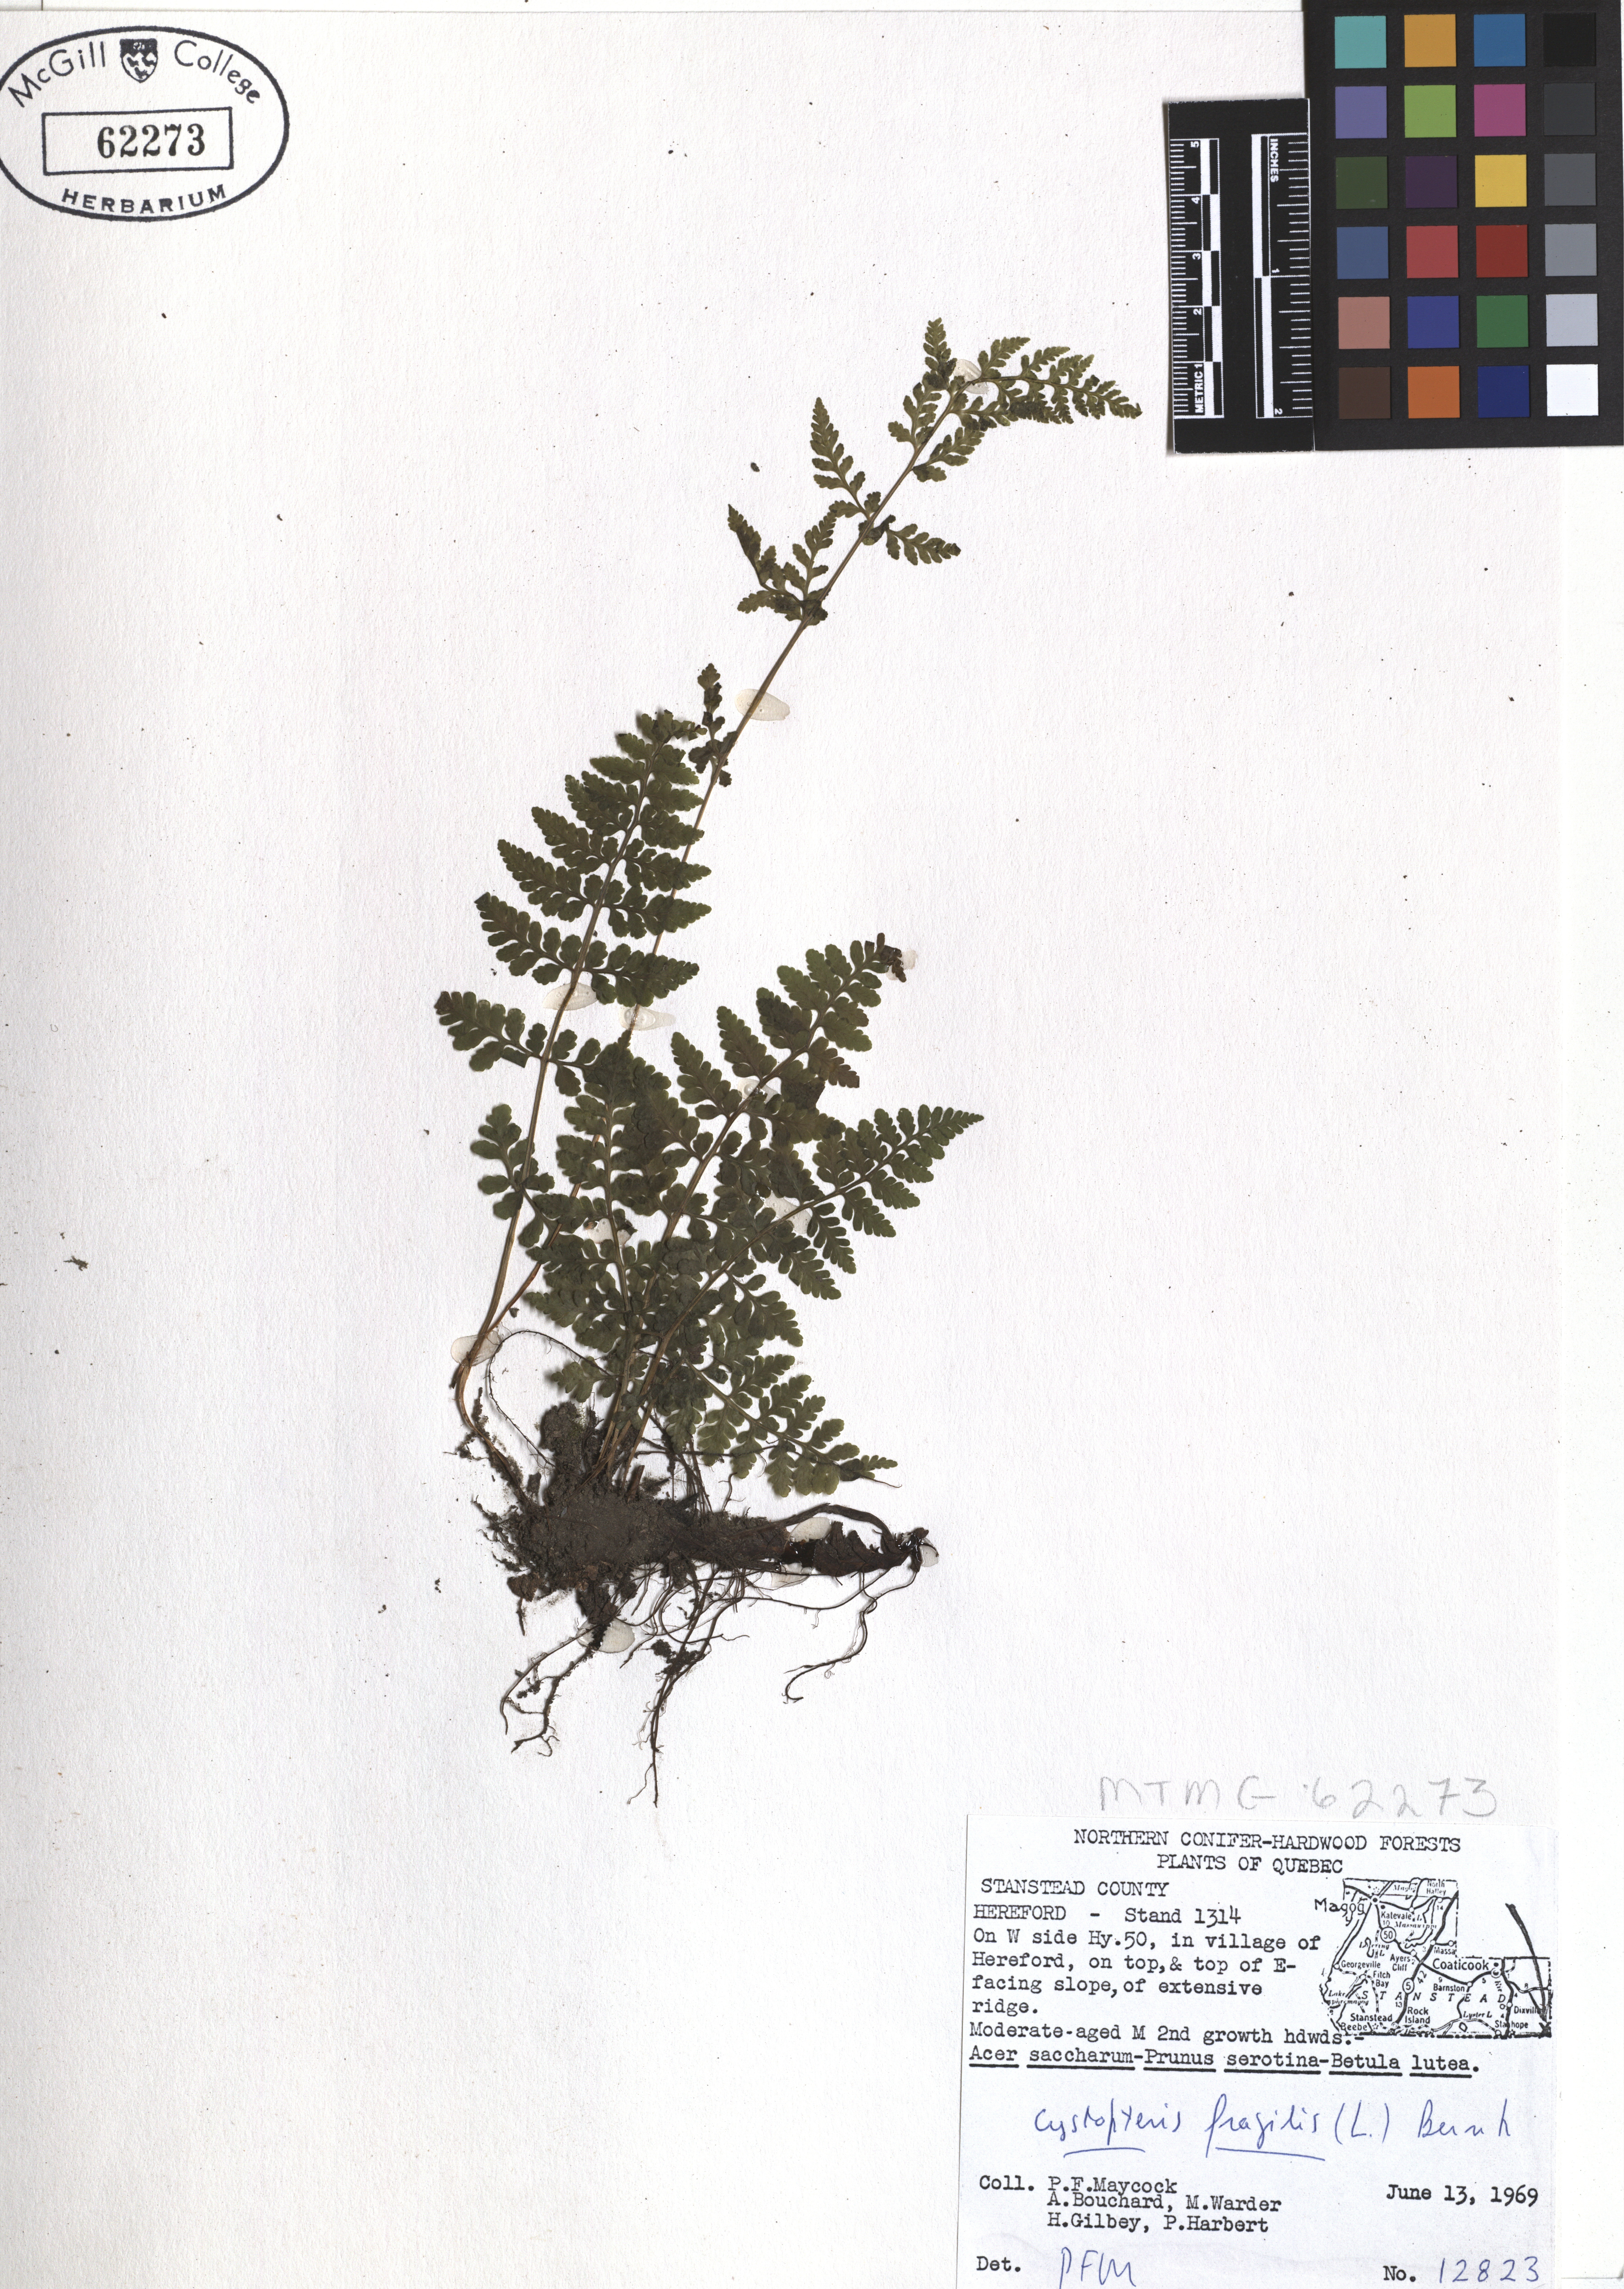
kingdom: Plantae
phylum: Tracheophyta
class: Polypodiopsida
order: Polypodiales
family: Cystopteridaceae
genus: Cystopteris
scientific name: Cystopteris fragilis
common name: Brittle bladder fern
